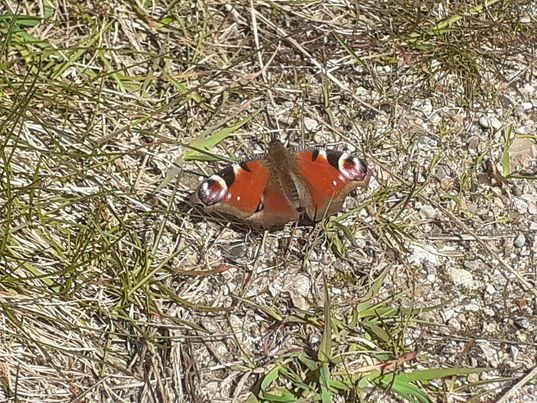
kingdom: Animalia
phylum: Arthropoda
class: Insecta
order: Lepidoptera
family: Nymphalidae
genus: Aglais
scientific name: Aglais io
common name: Dagpåfugleøje
